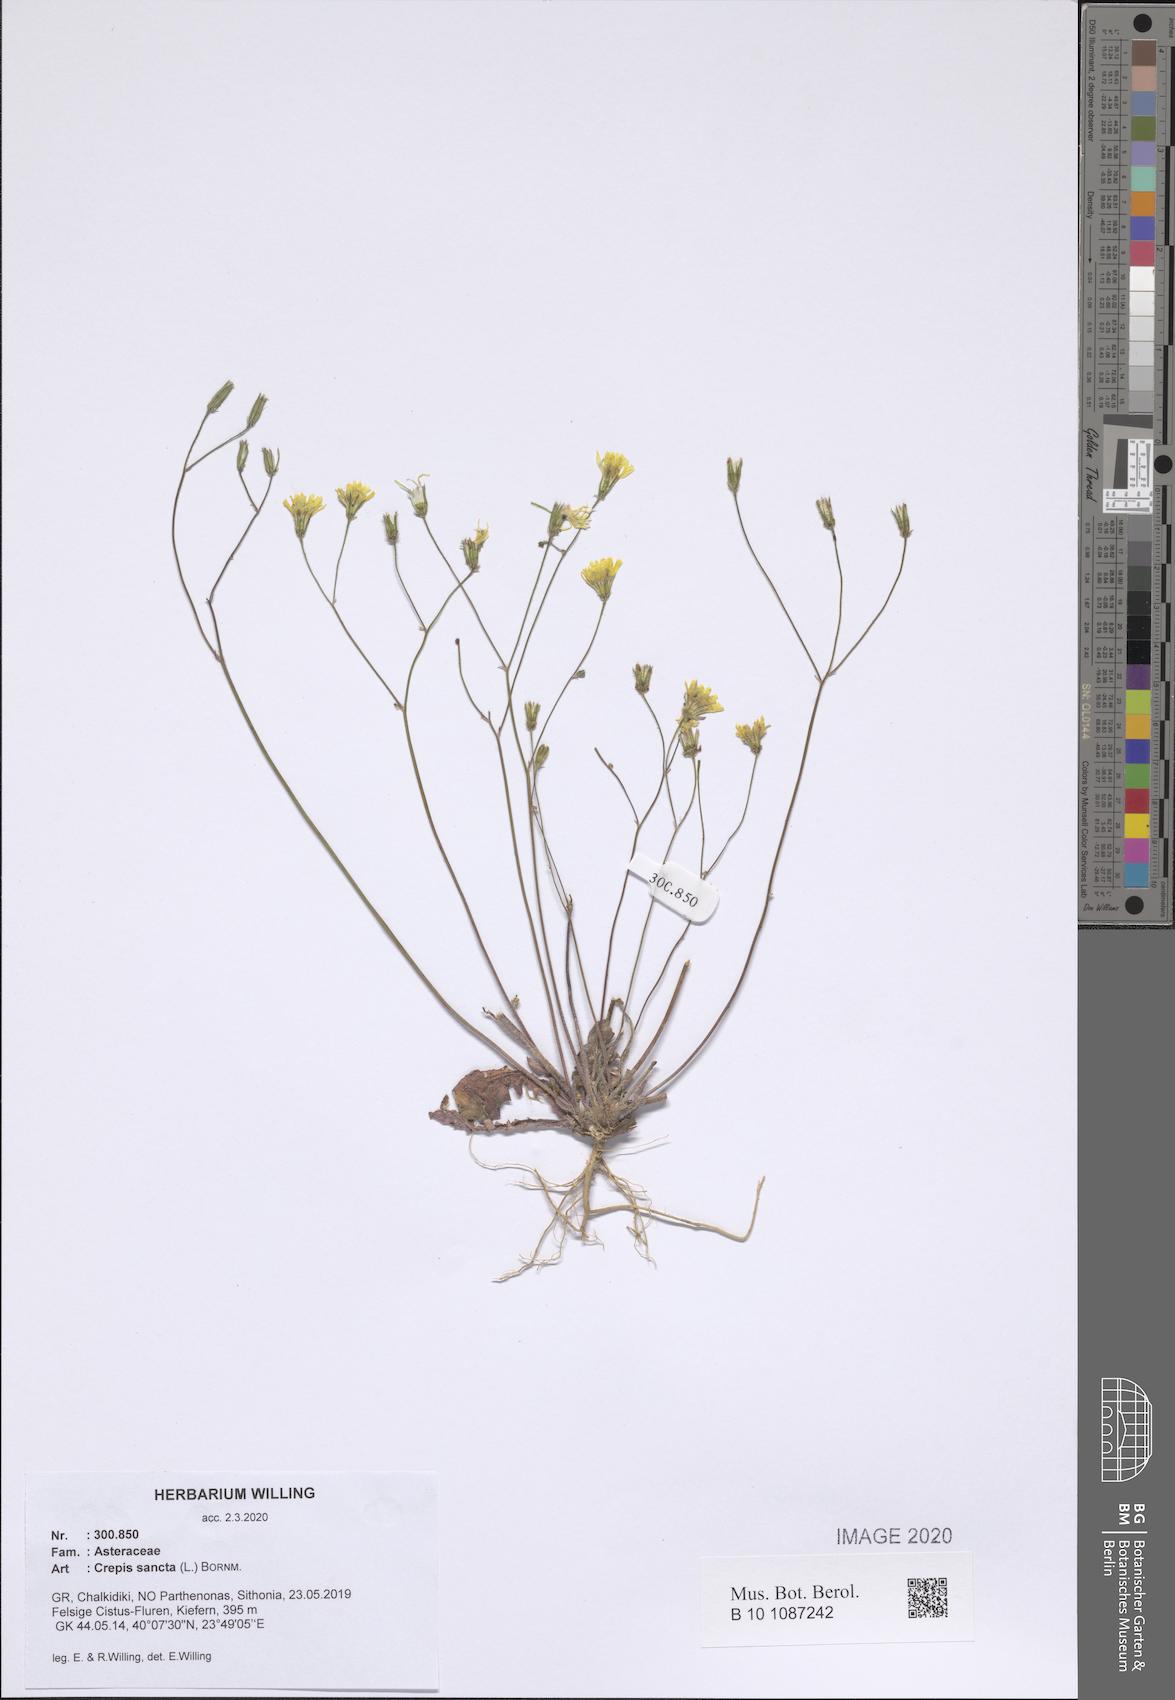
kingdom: Plantae
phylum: Tracheophyta
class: Magnoliopsida
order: Asterales
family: Asteraceae
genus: Crepis
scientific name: Crepis sancta
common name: Hawk's-beard
